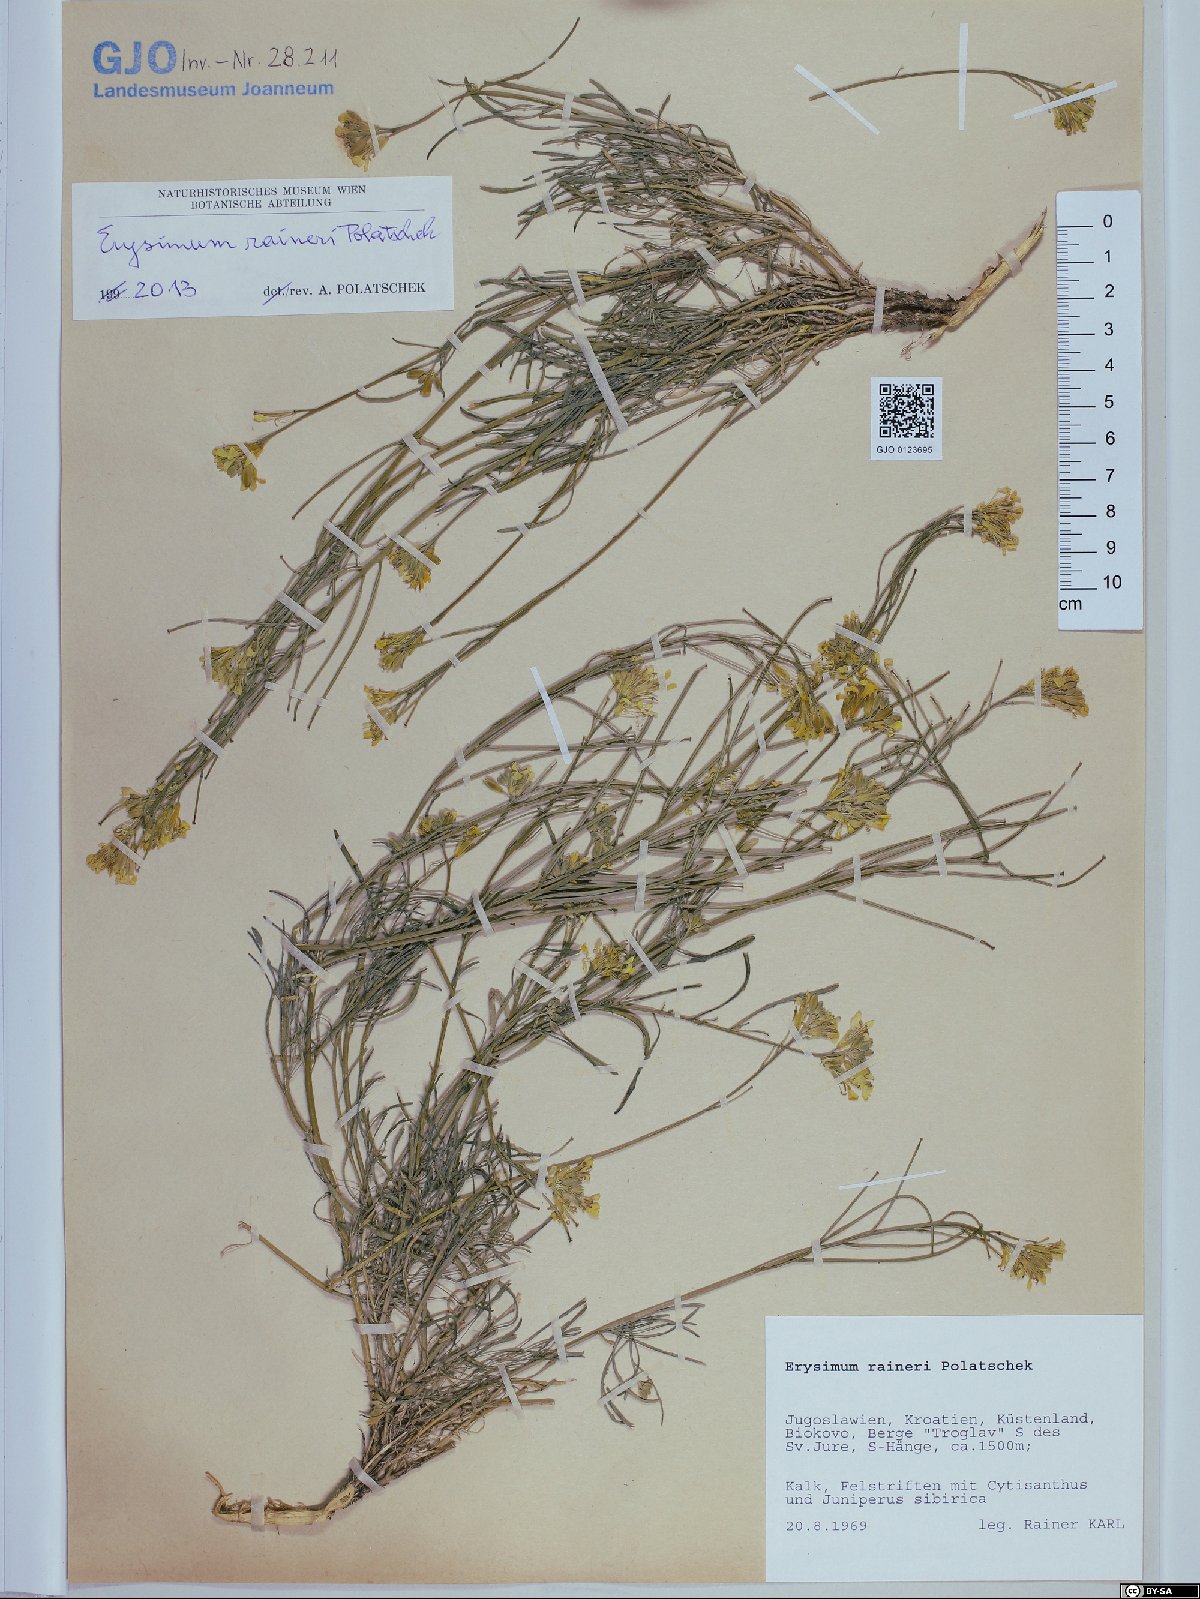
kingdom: Plantae
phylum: Tracheophyta
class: Magnoliopsida
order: Brassicales
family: Brassicaceae
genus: Erysimum
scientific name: Erysimum raineri
